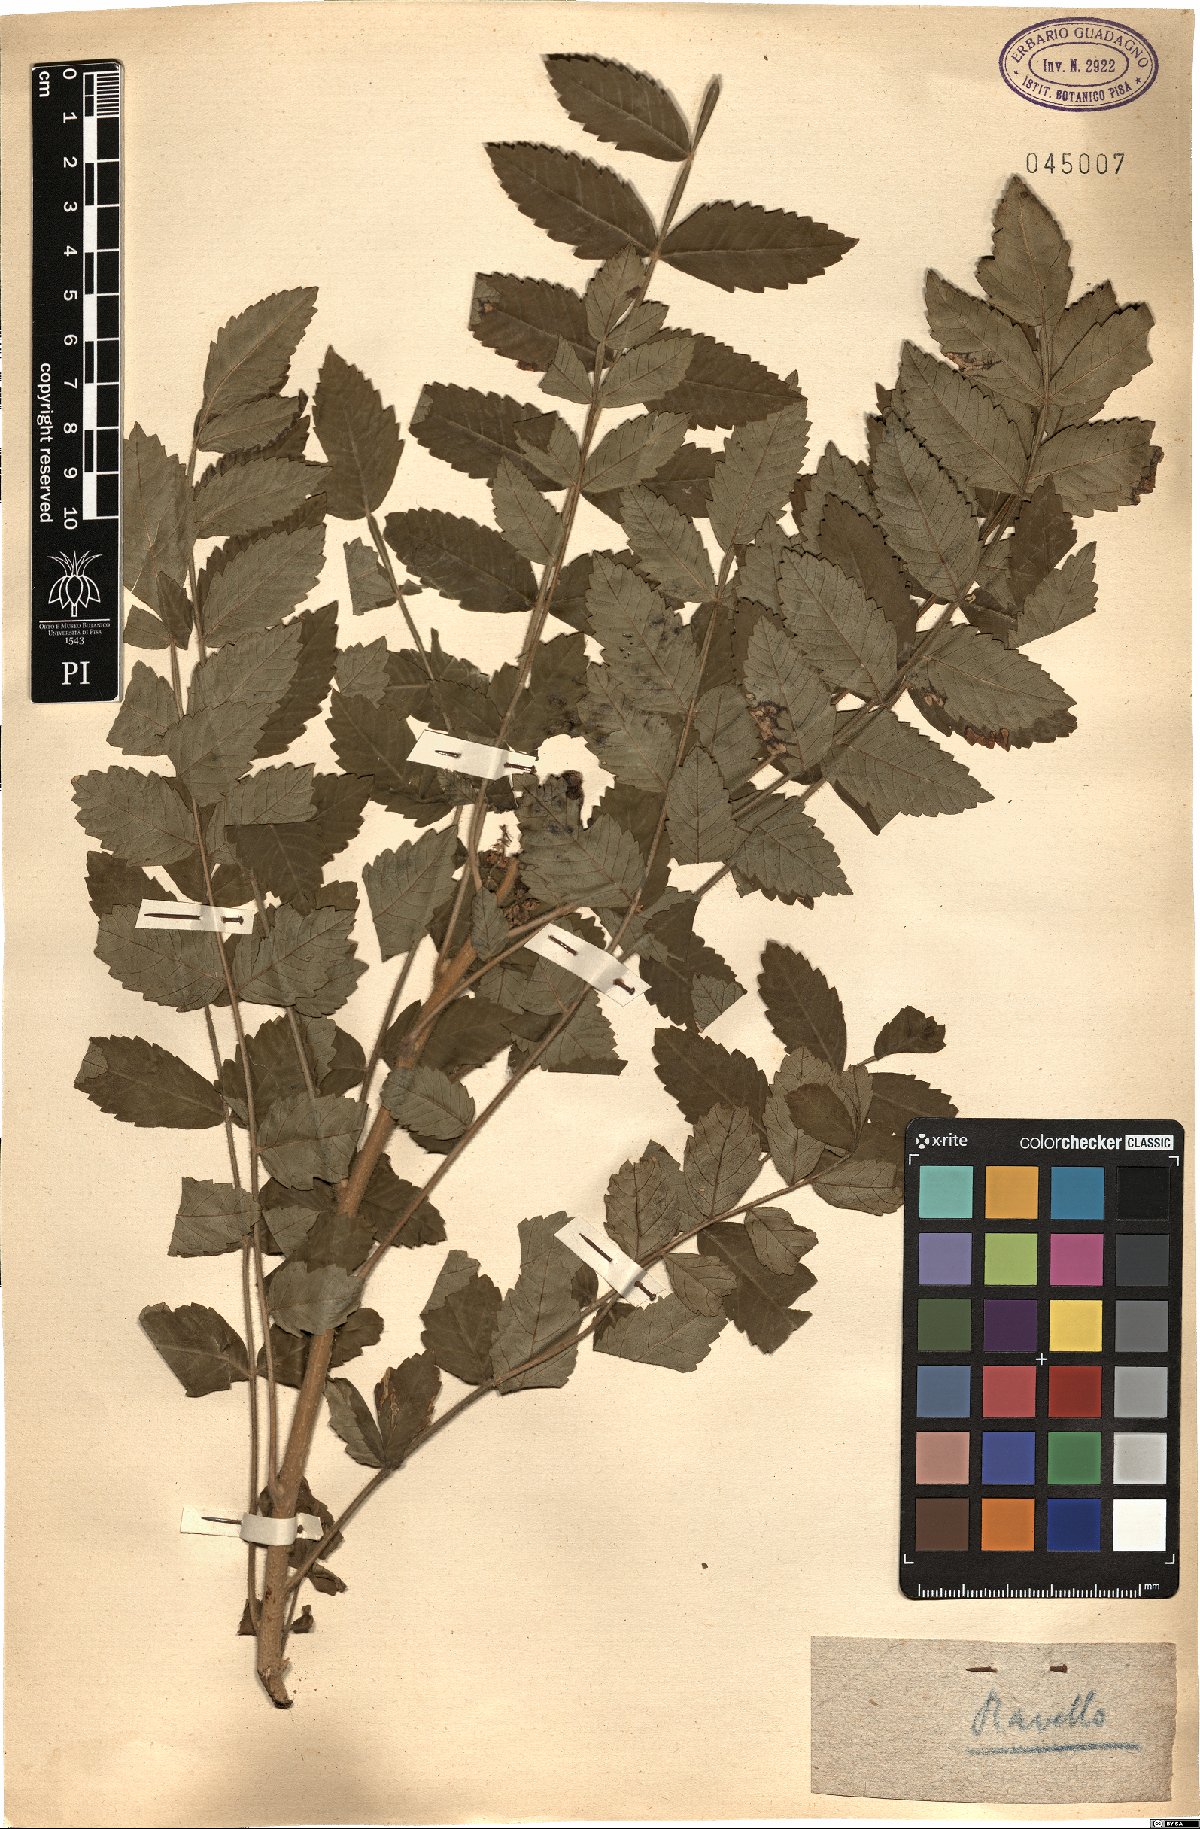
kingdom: Plantae
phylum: Tracheophyta
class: Magnoliopsida
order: Sapindales
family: Anacardiaceae
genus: Cotinus
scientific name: Cotinus
